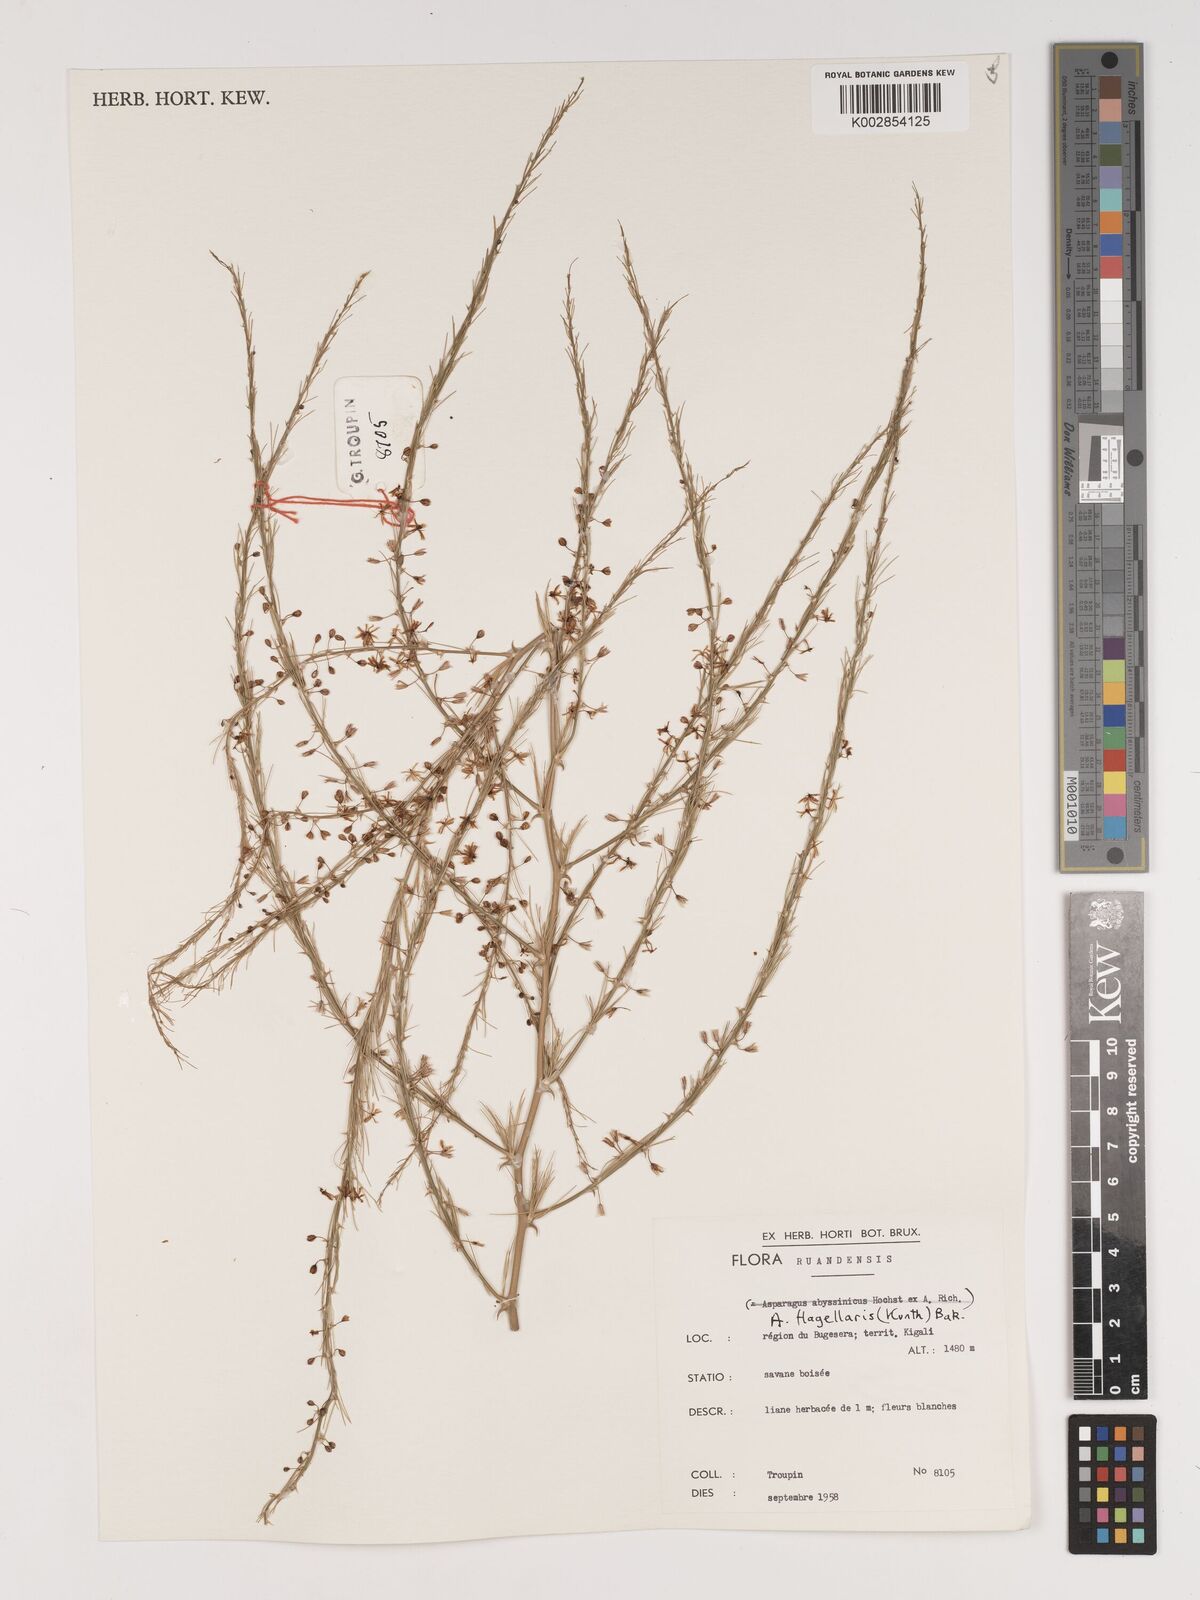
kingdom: Plantae
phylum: Tracheophyta
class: Liliopsida
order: Asparagales
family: Asparagaceae
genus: Asparagus
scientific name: Asparagus flagellaris
